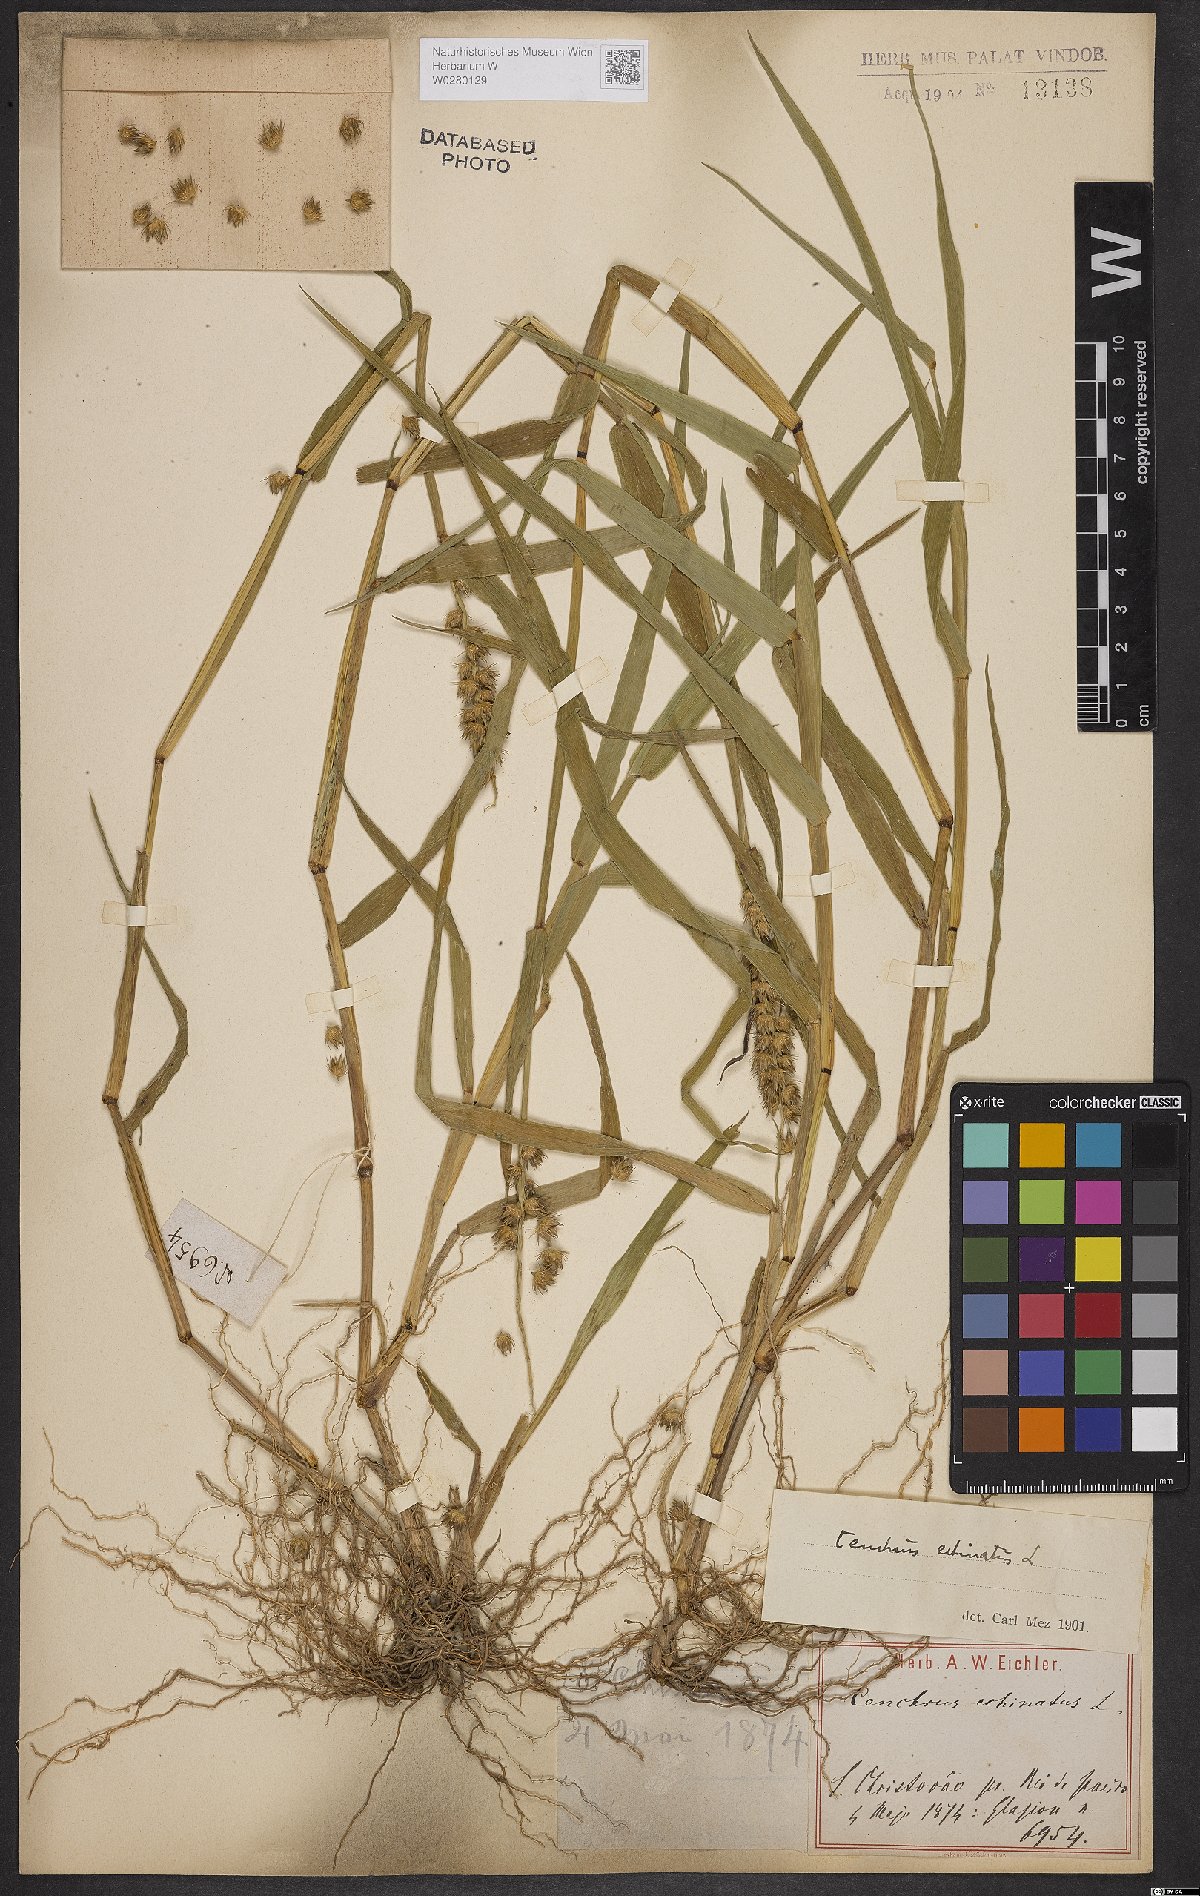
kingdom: Plantae
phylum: Tracheophyta
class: Liliopsida
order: Poales
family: Poaceae
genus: Cenchrus
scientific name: Cenchrus echinatus
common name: Southern sandbur
